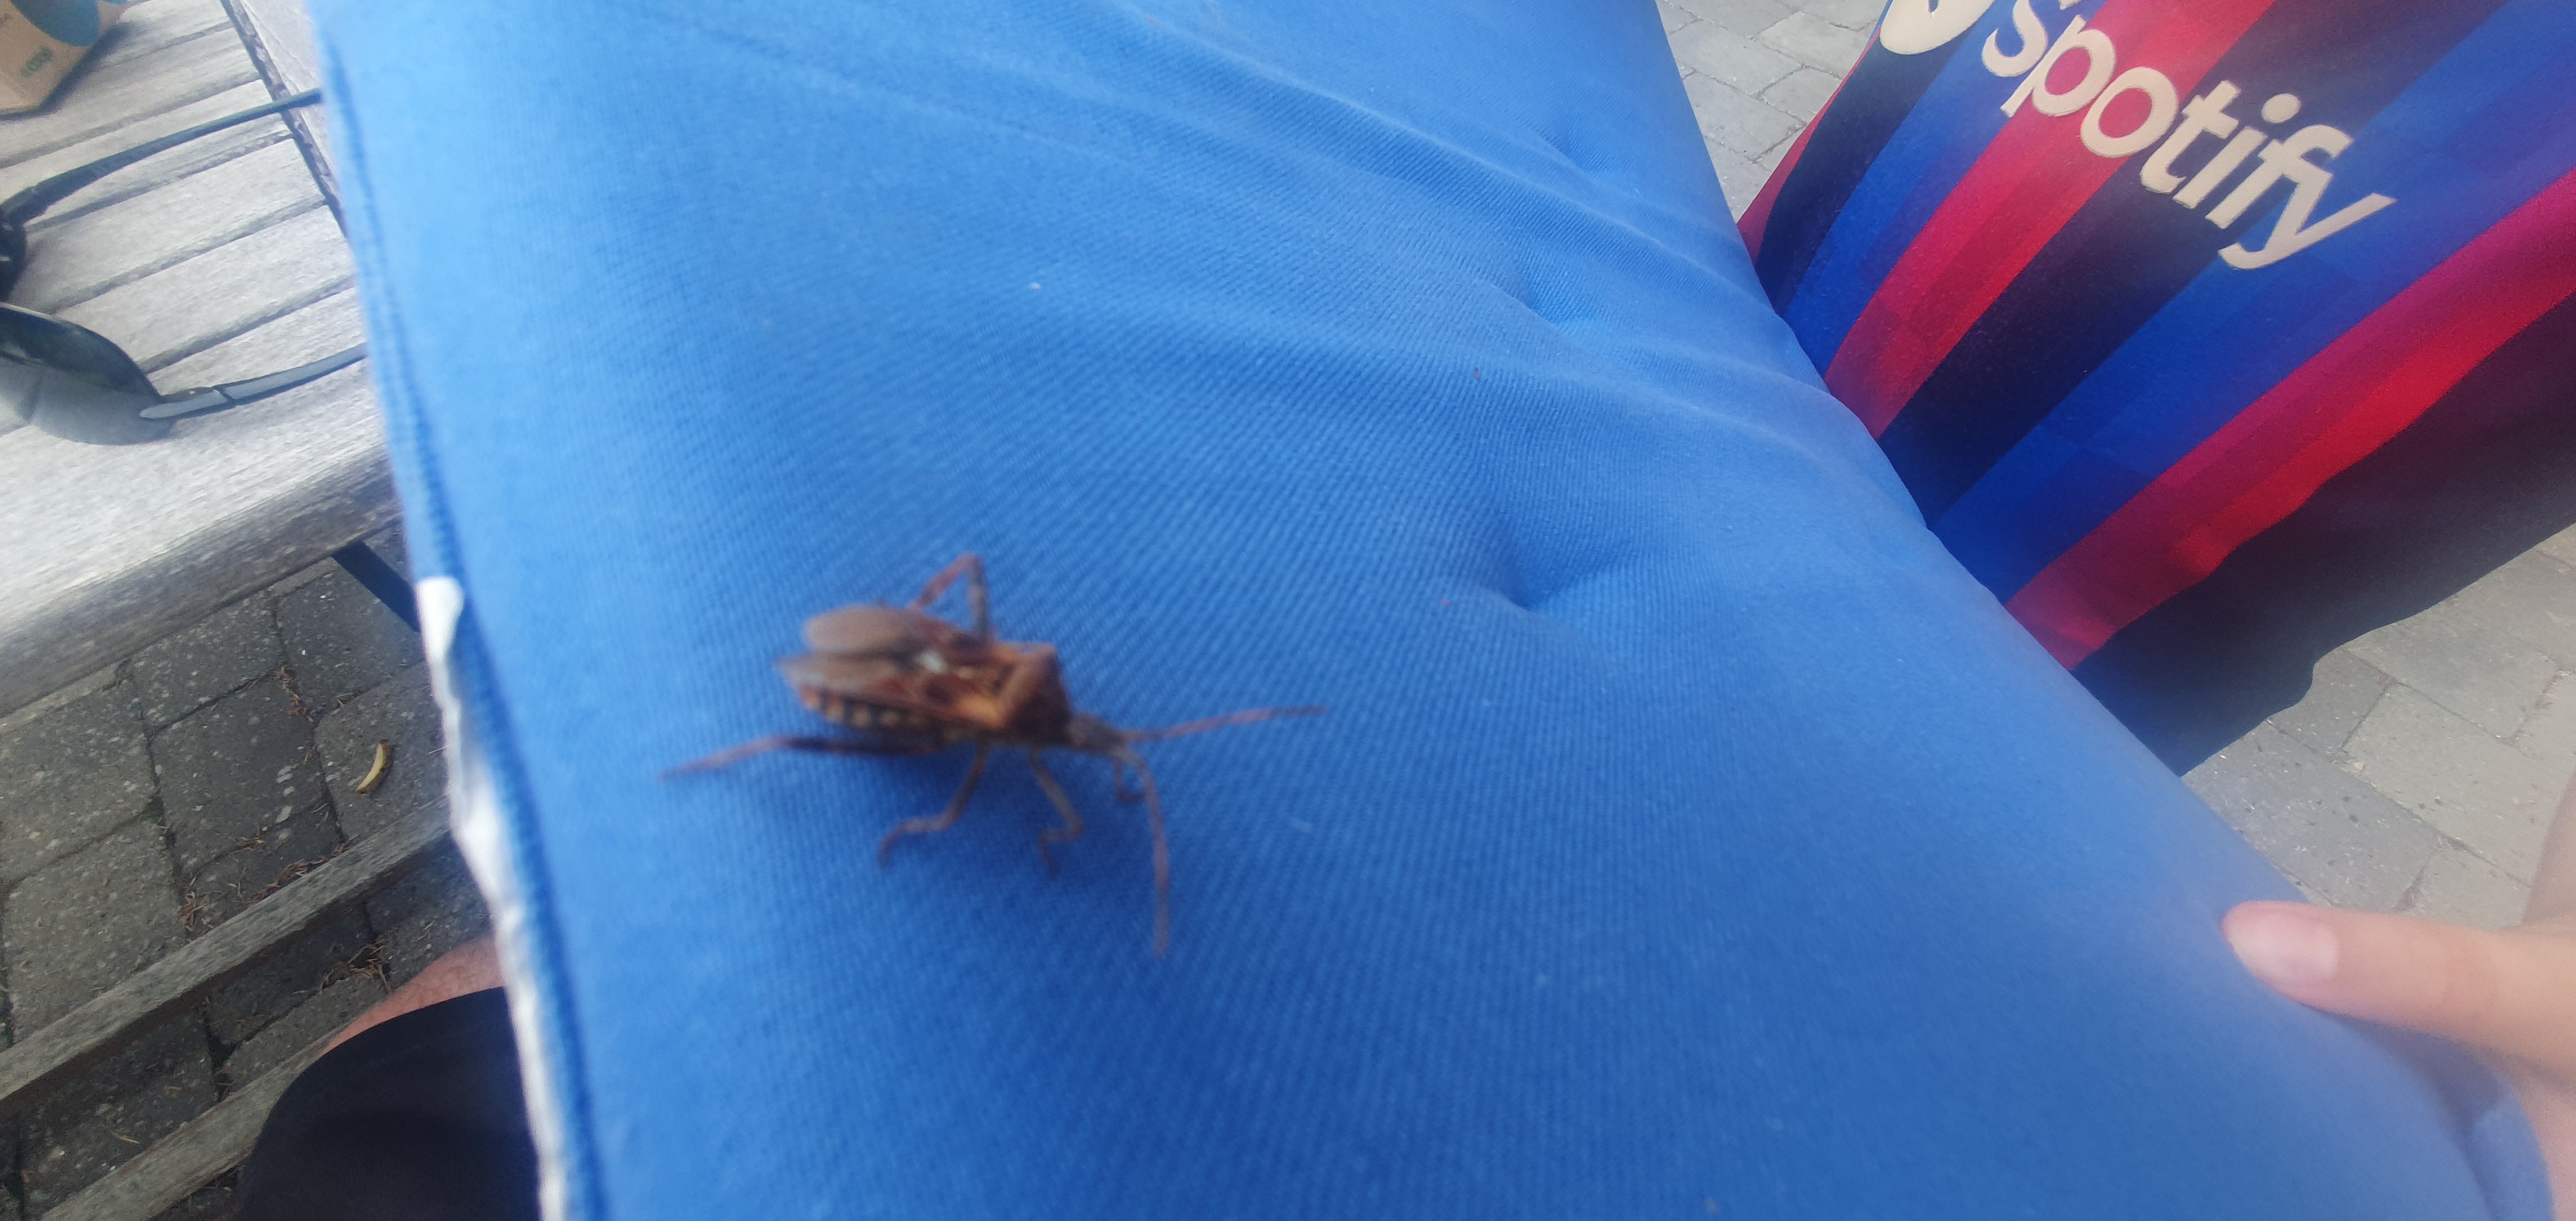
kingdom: Animalia
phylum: Arthropoda
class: Insecta
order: Hemiptera
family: Coreidae
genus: Leptoglossus
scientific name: Leptoglossus occidentalis
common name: Amerikansk fyrretæge
